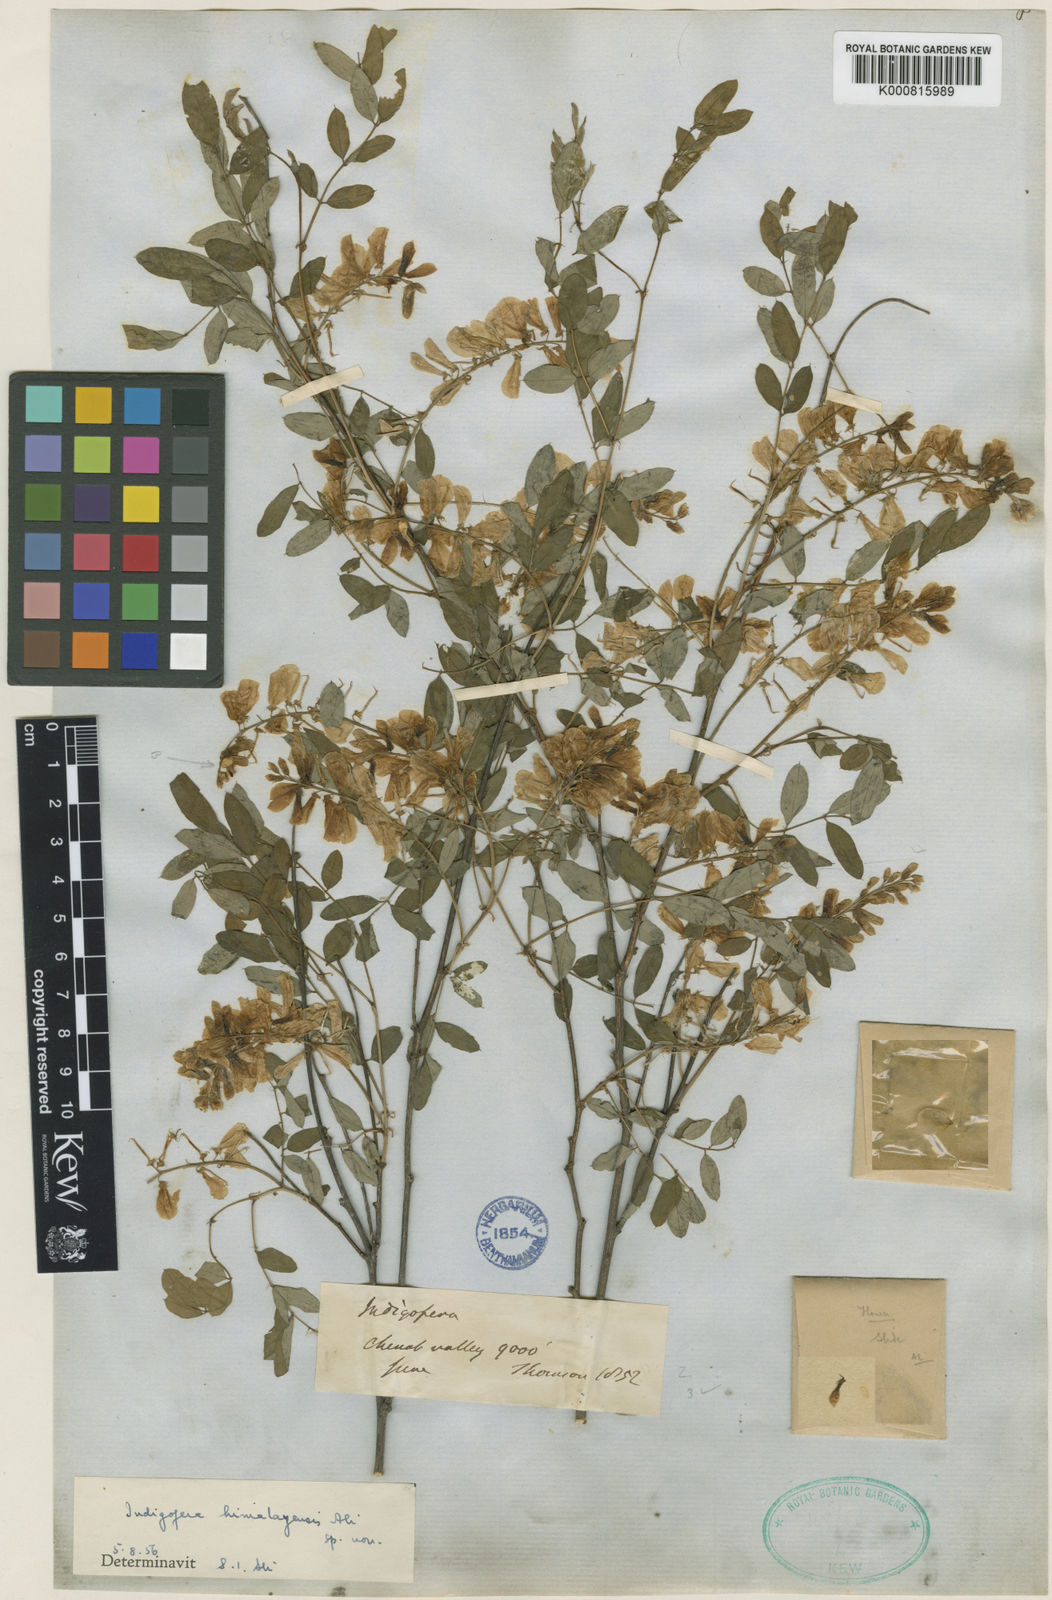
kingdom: Plantae
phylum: Tracheophyta
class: Magnoliopsida
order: Fabales
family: Fabaceae
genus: Indigofera
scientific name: Indigofera himalayensis
